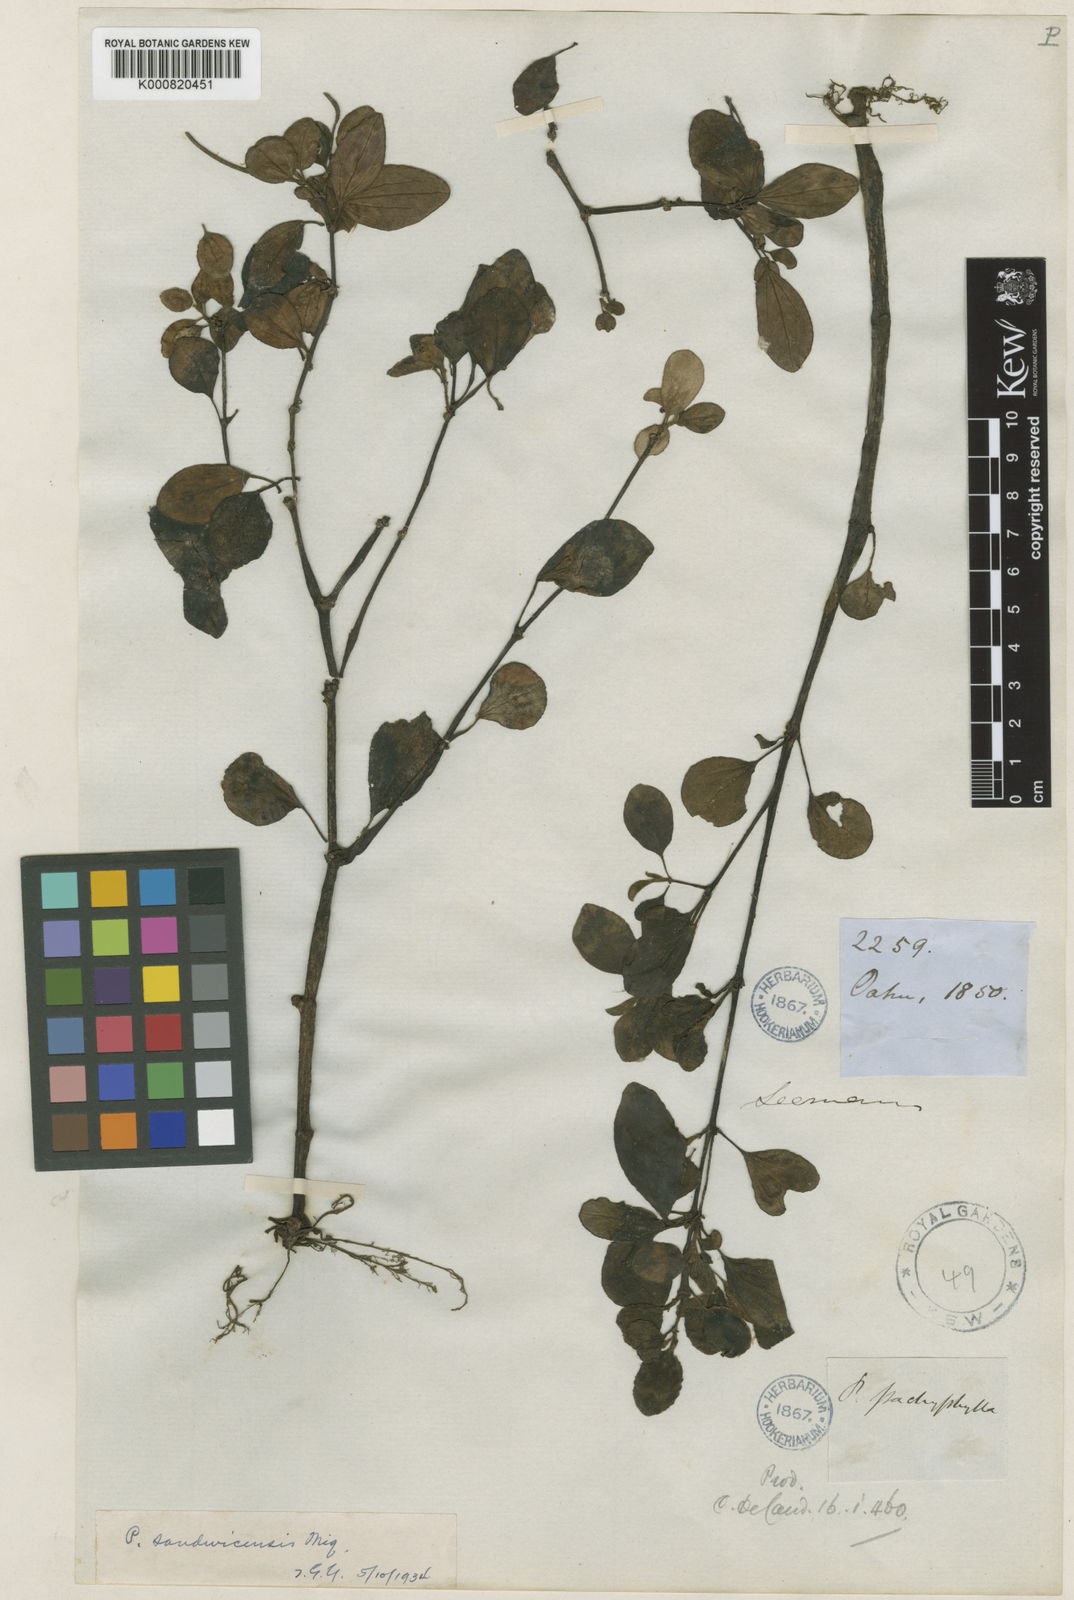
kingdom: Plantae
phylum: Tracheophyta
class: Magnoliopsida
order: Piperales
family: Piperaceae
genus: Peperomia
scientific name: Peperomia sandwicensis
